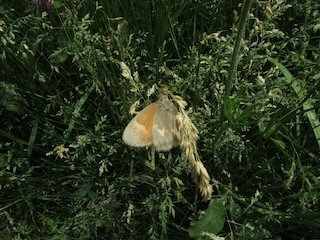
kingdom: Animalia
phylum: Arthropoda
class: Insecta
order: Lepidoptera
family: Nymphalidae
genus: Coenonympha
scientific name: Coenonympha tullia
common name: Large Heath
